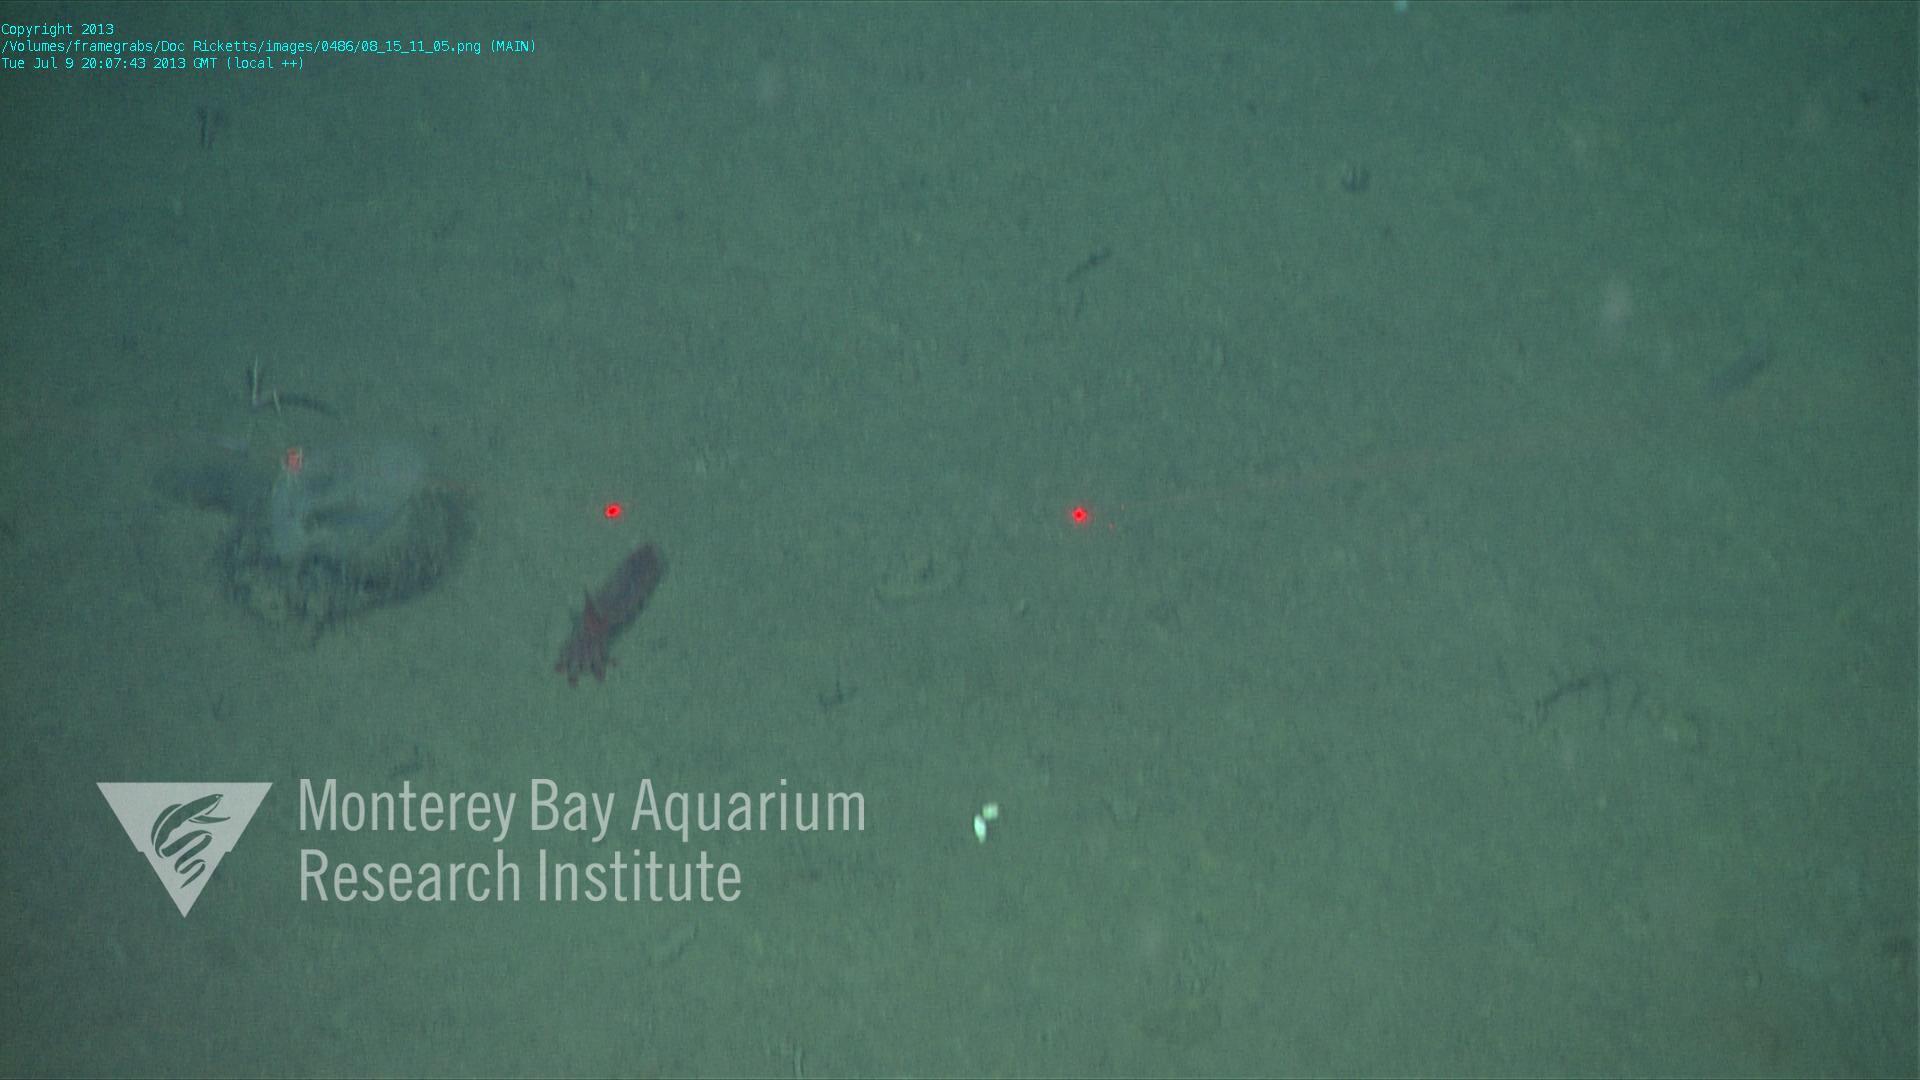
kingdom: Animalia
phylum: Porifera
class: Hexactinellida
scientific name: Hexactinellida
